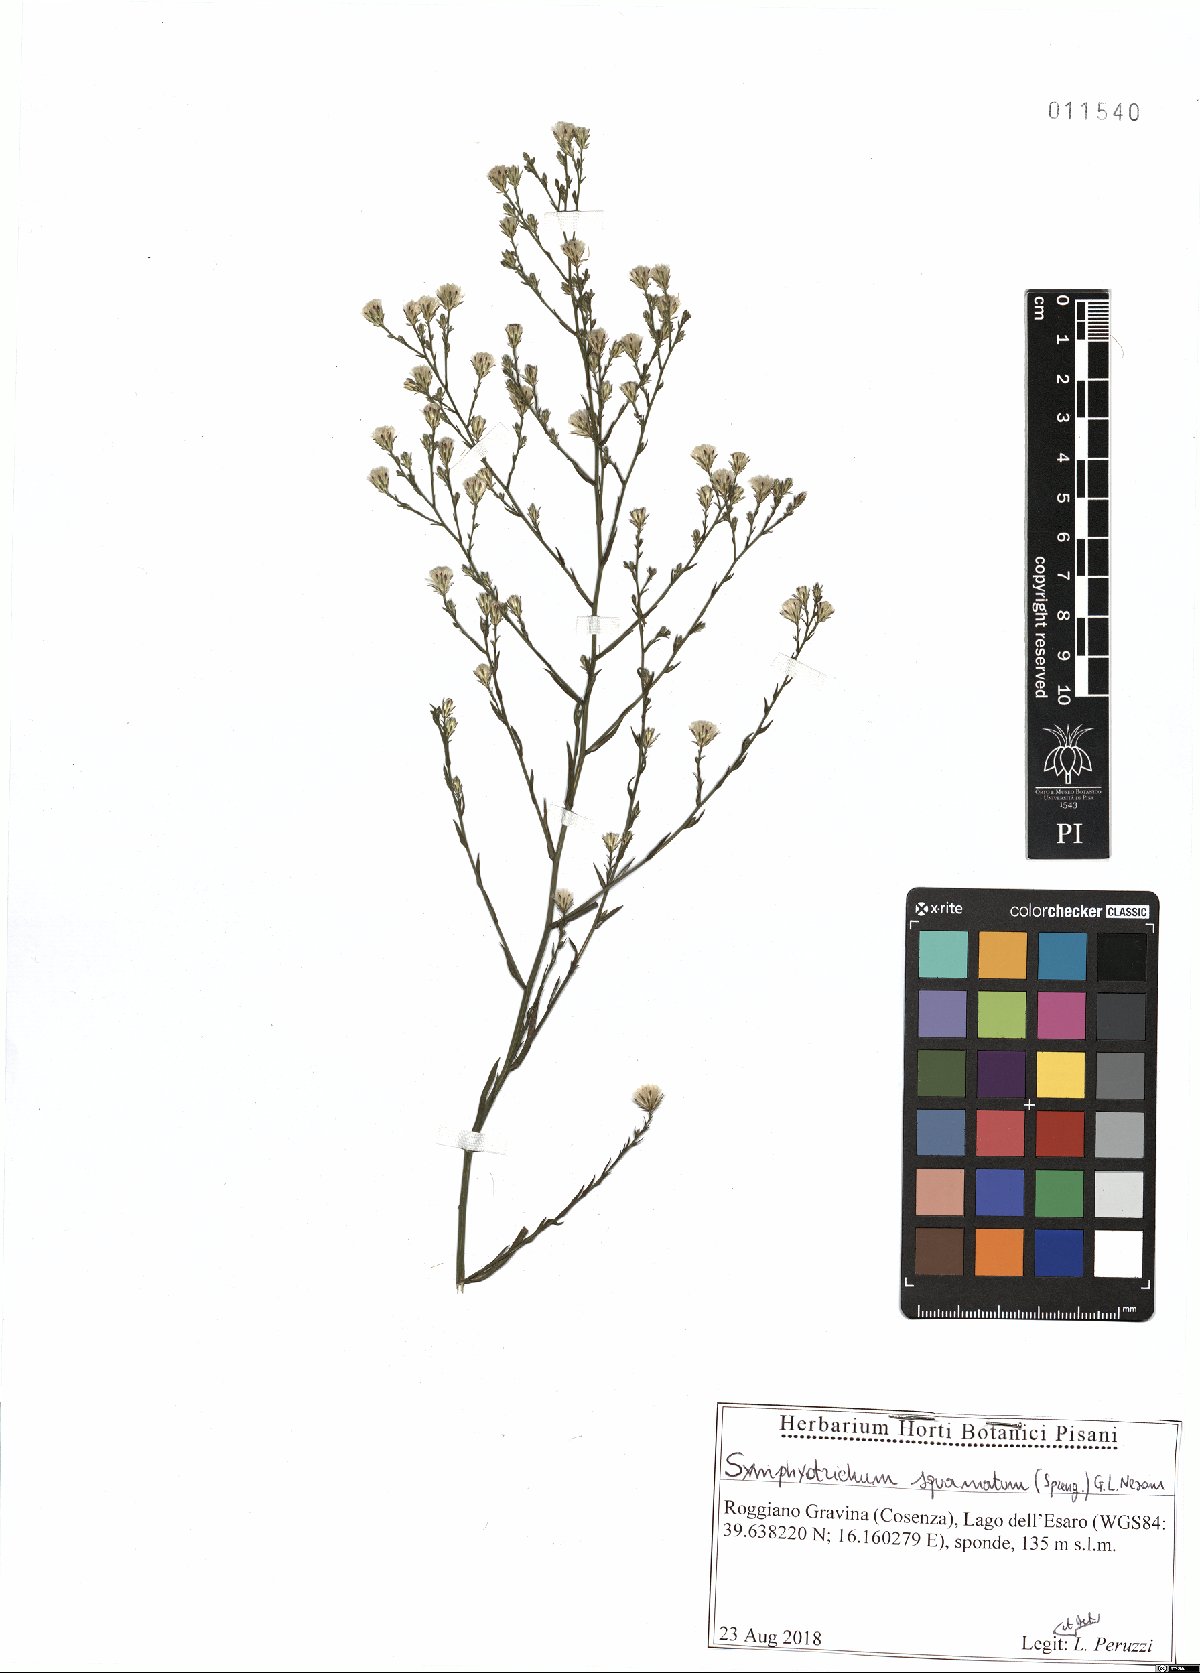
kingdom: Plantae
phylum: Tracheophyta
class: Magnoliopsida
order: Asterales
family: Asteraceae
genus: Symphyotrichum
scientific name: Symphyotrichum squamatum
